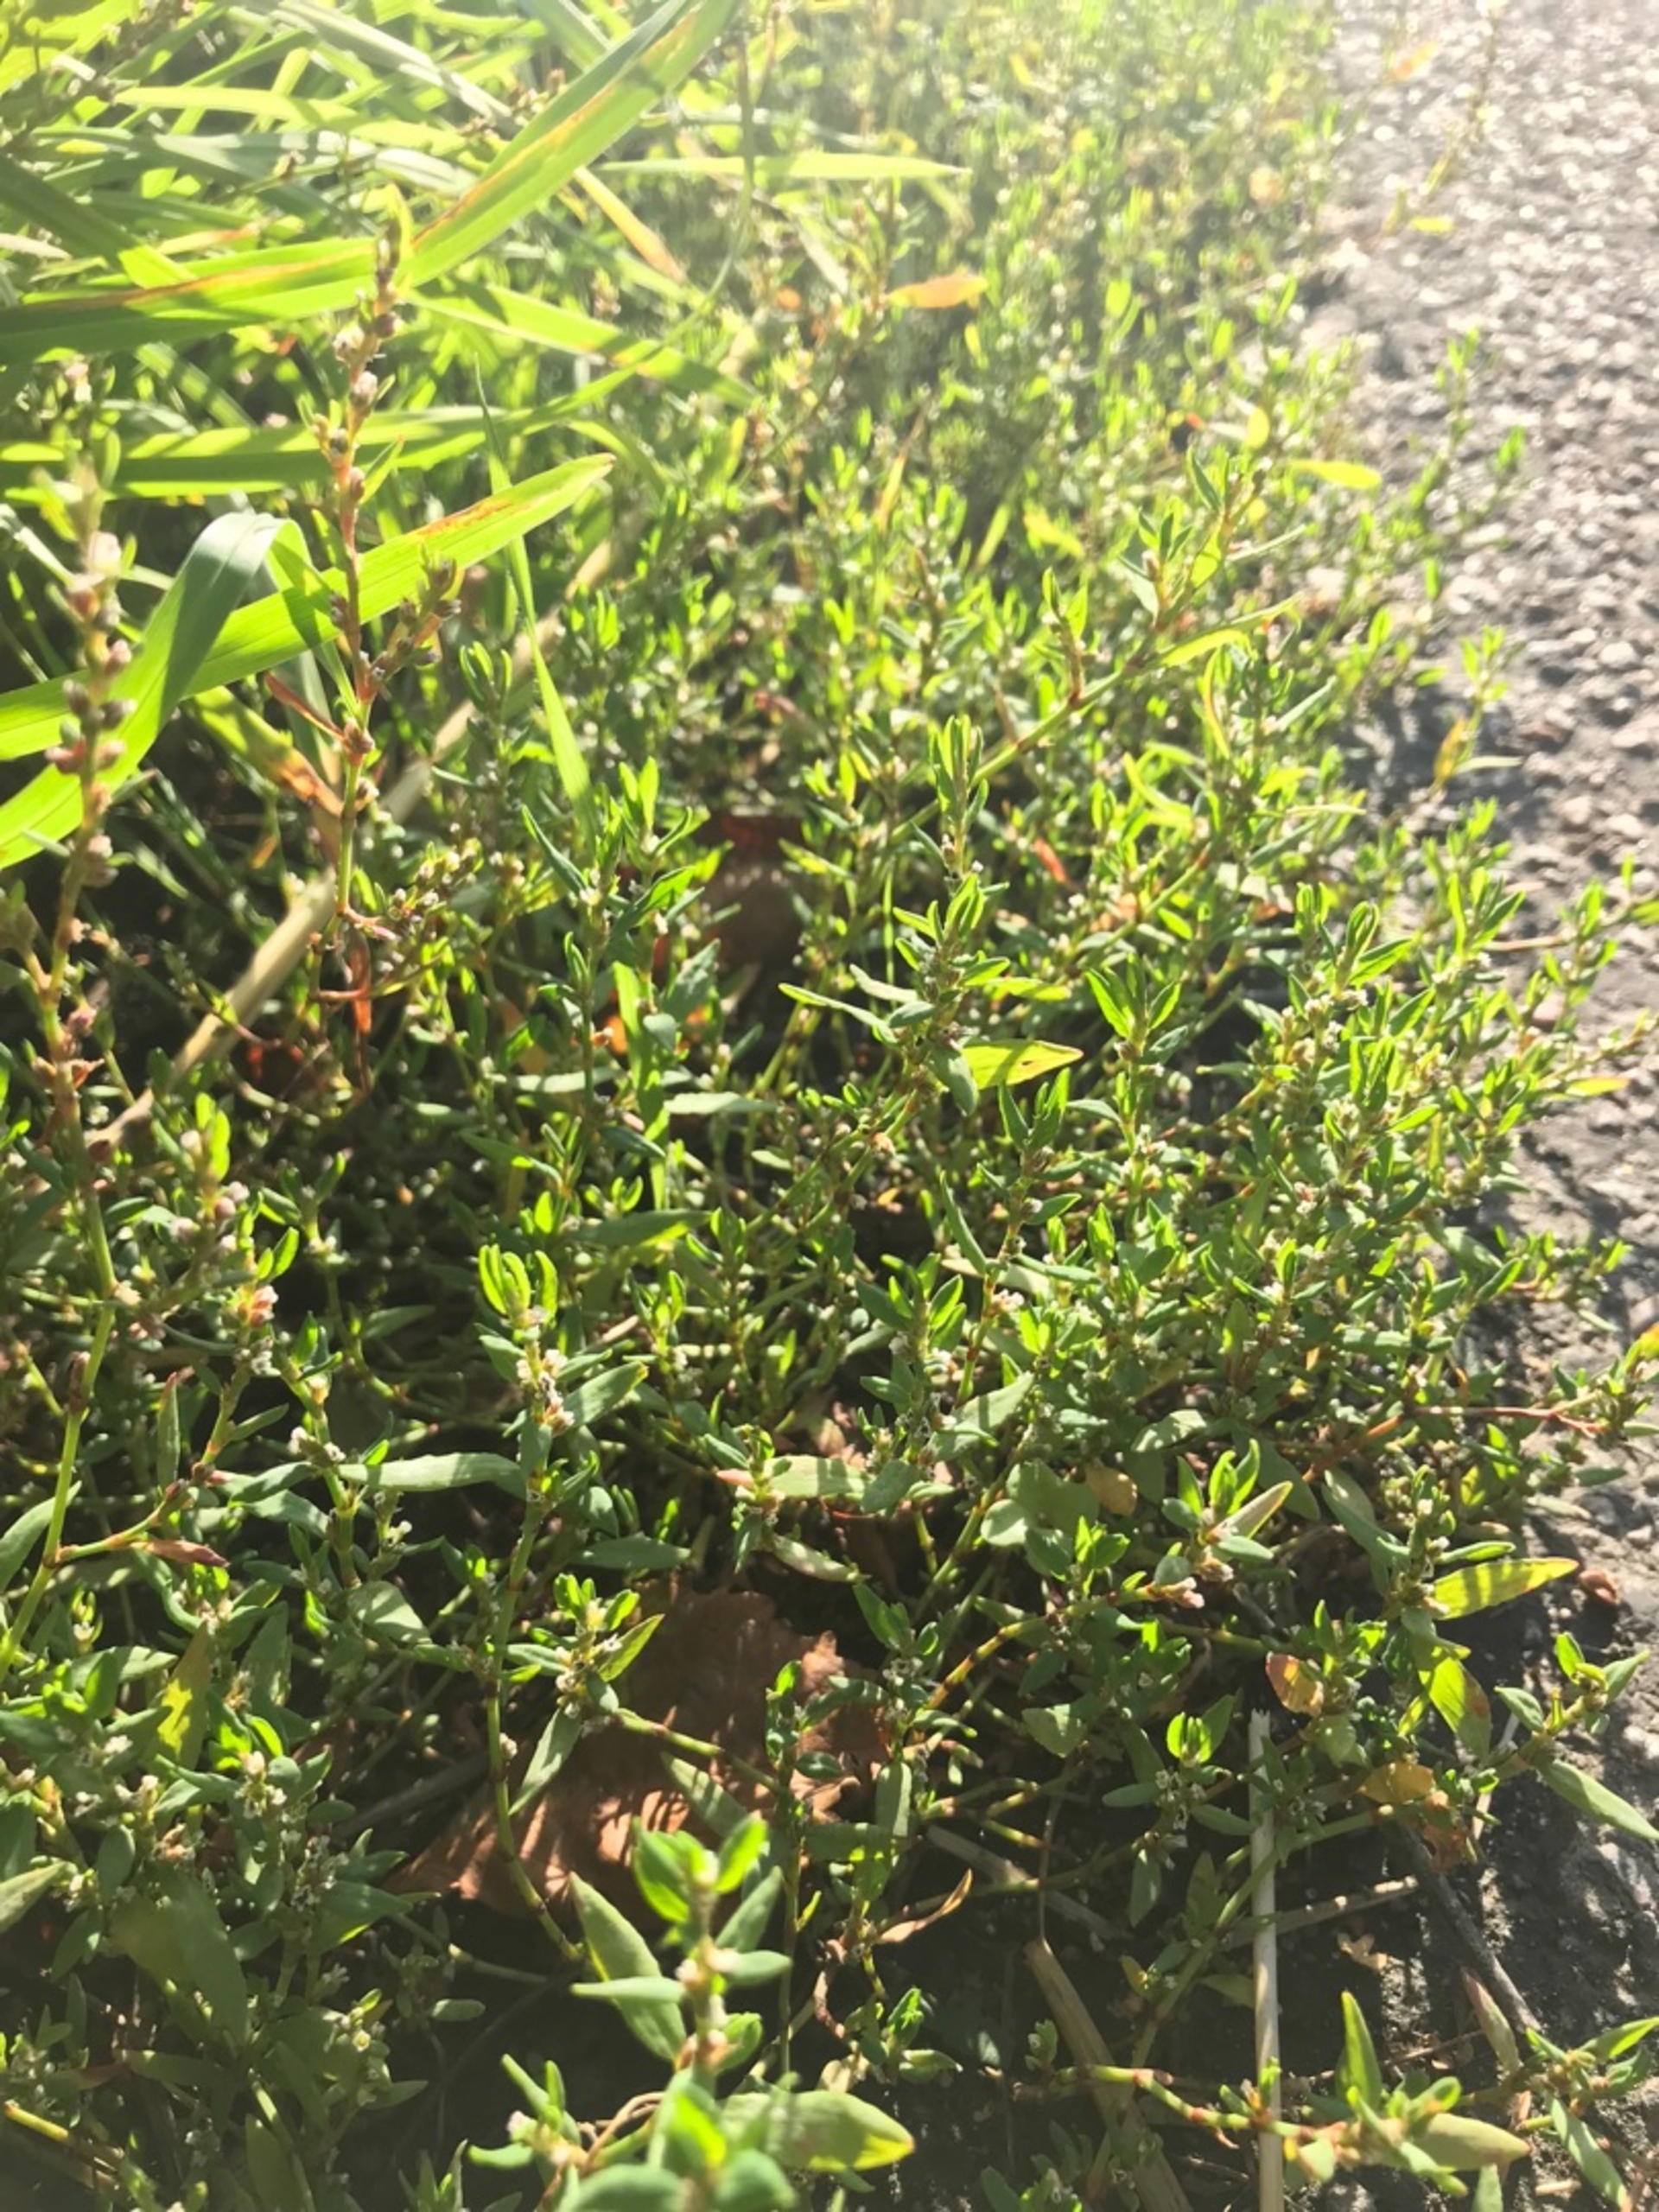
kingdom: Plantae
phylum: Tracheophyta
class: Magnoliopsida
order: Caryophyllales
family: Polygonaceae
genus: Polygonum
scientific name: Polygonum arenastrum
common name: Liggende vej-pileurt
